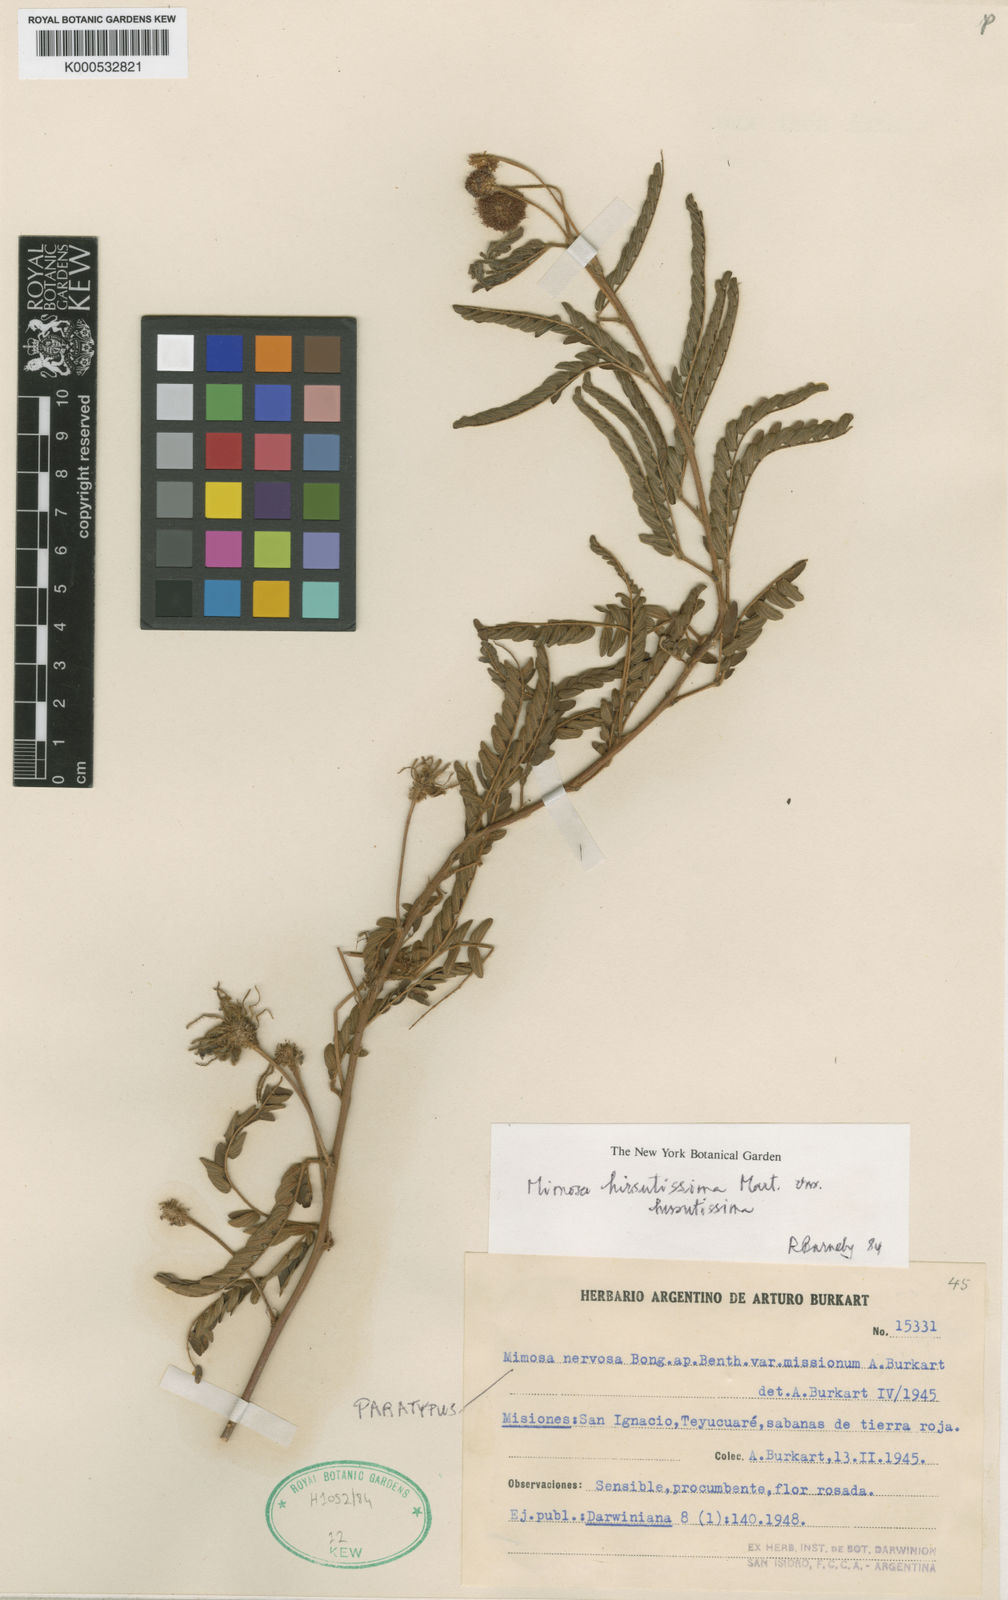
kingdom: Plantae
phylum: Tracheophyta
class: Magnoliopsida
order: Fabales
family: Fabaceae
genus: Mimosa
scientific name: Mimosa hirsutissima
